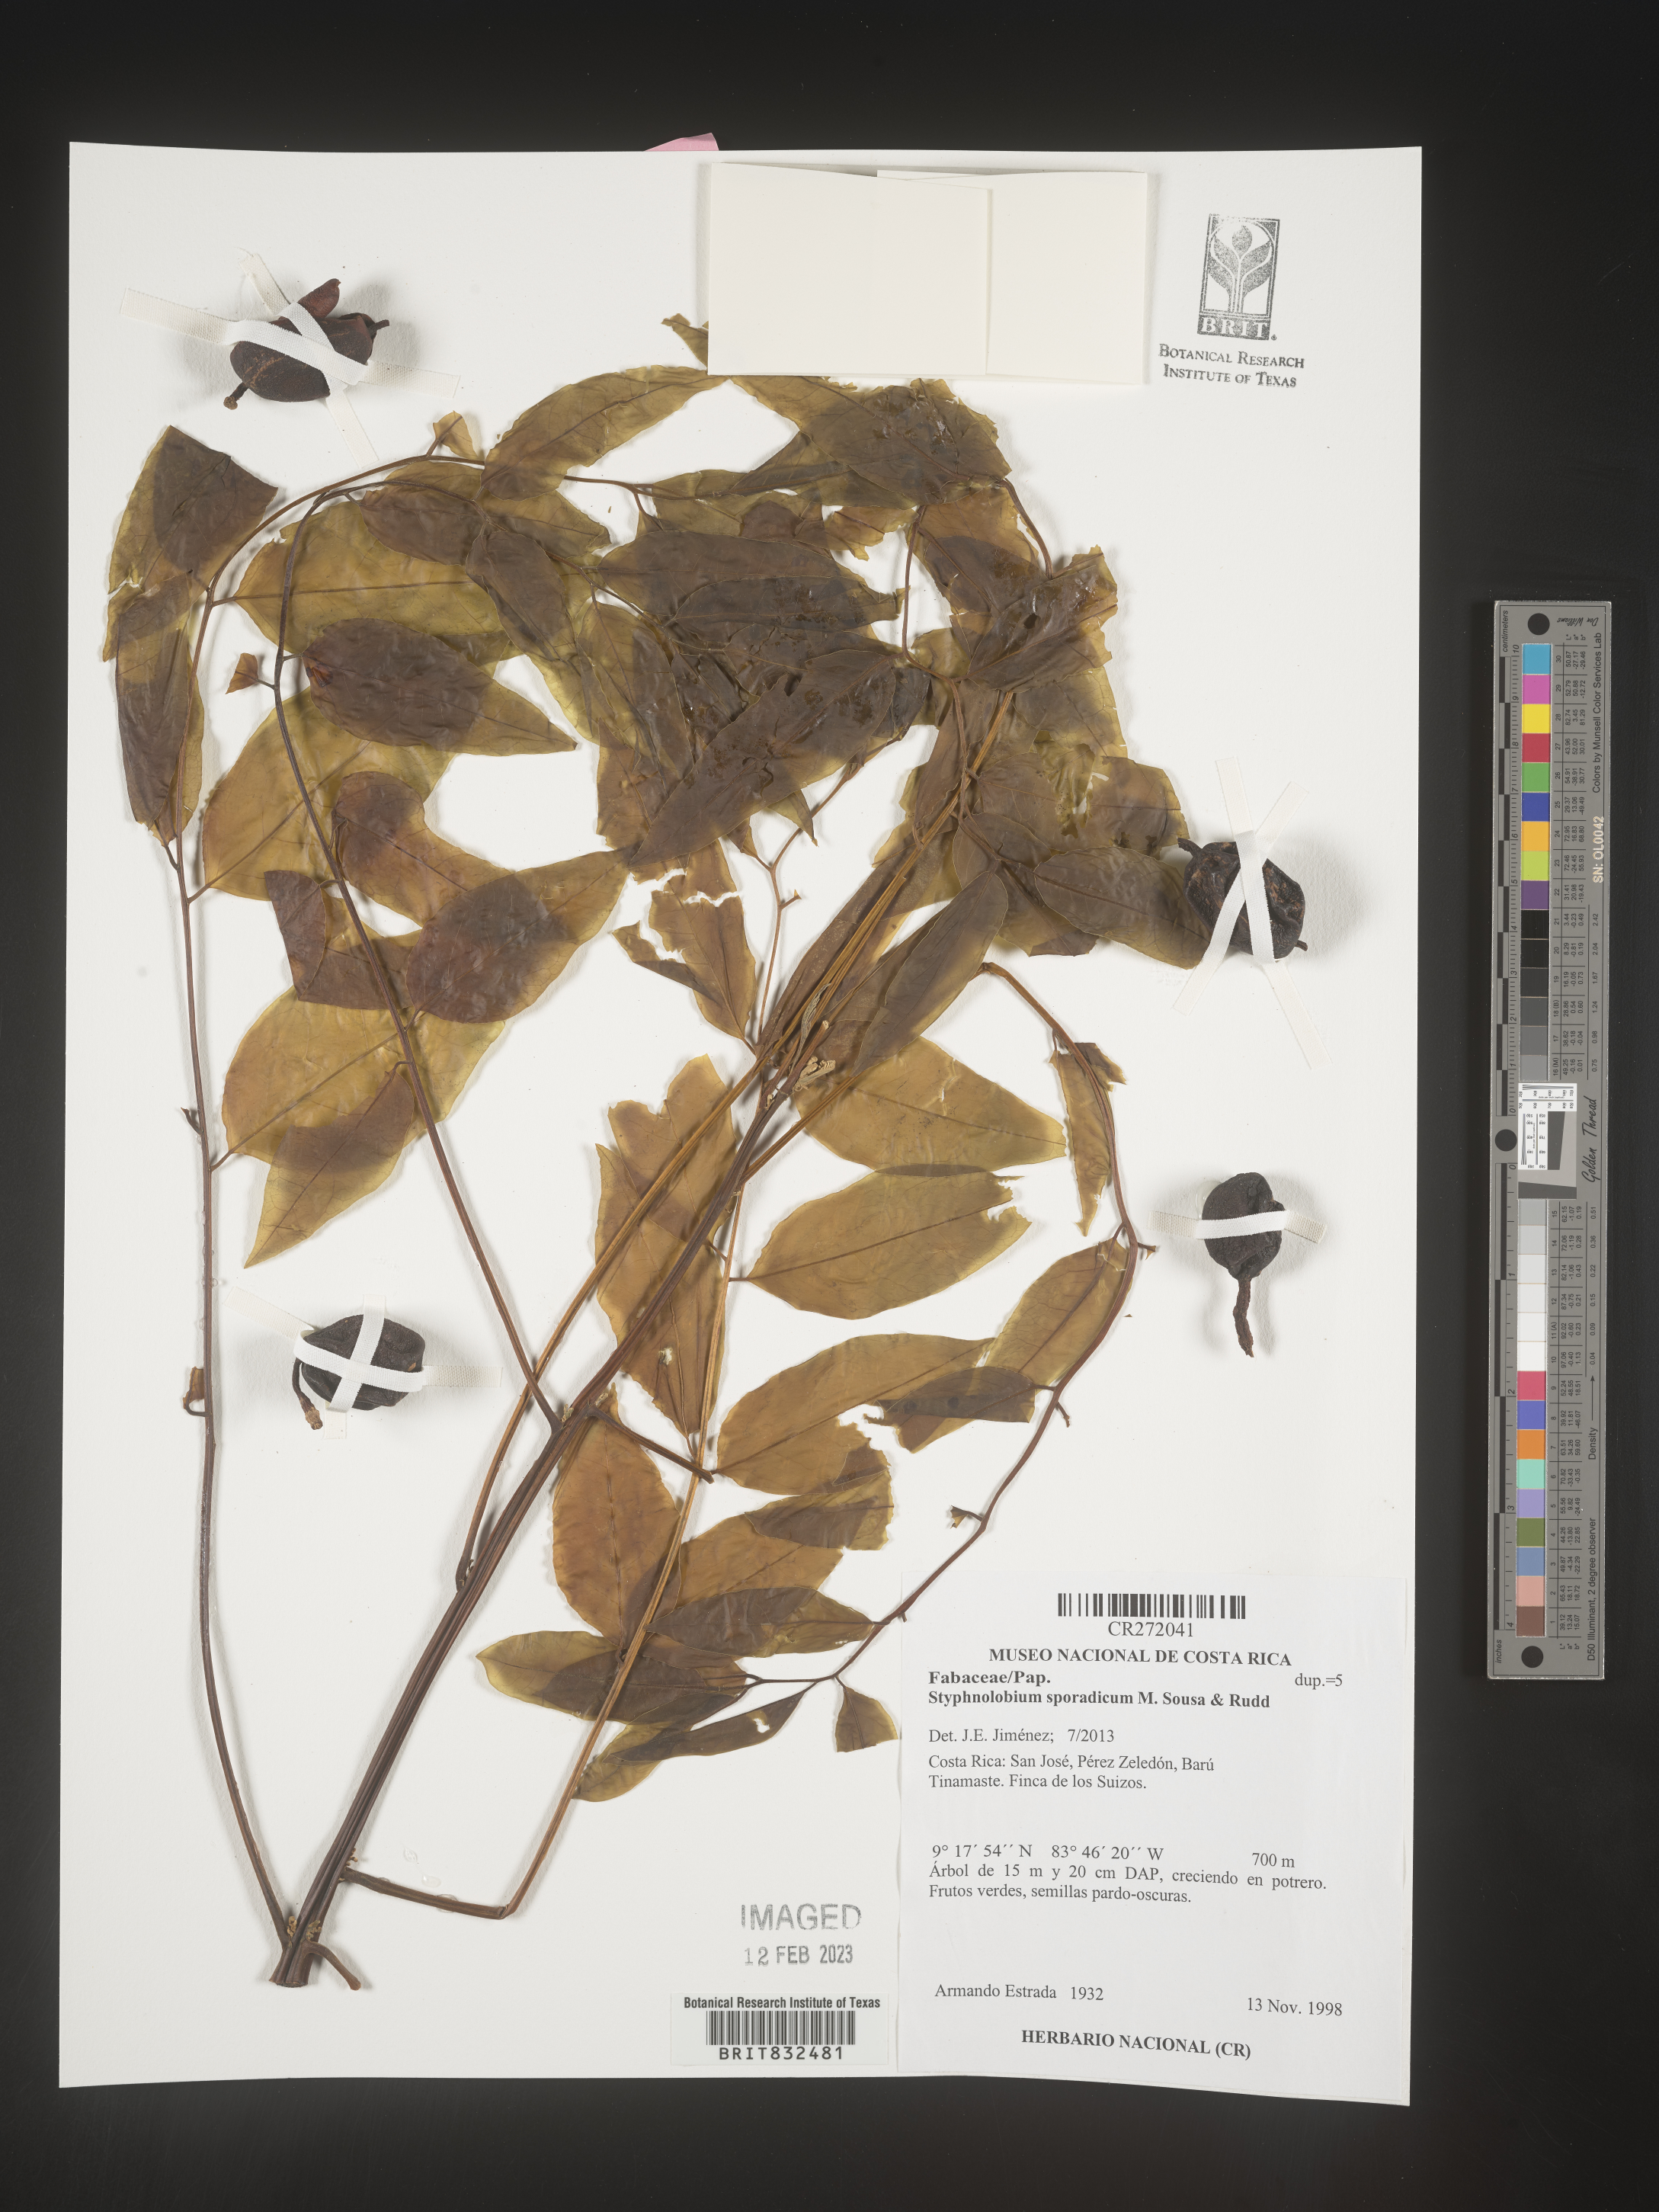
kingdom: Plantae
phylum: Tracheophyta
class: Magnoliopsida
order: Fabales
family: Fabaceae
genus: Styphnolobium
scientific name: Styphnolobium
